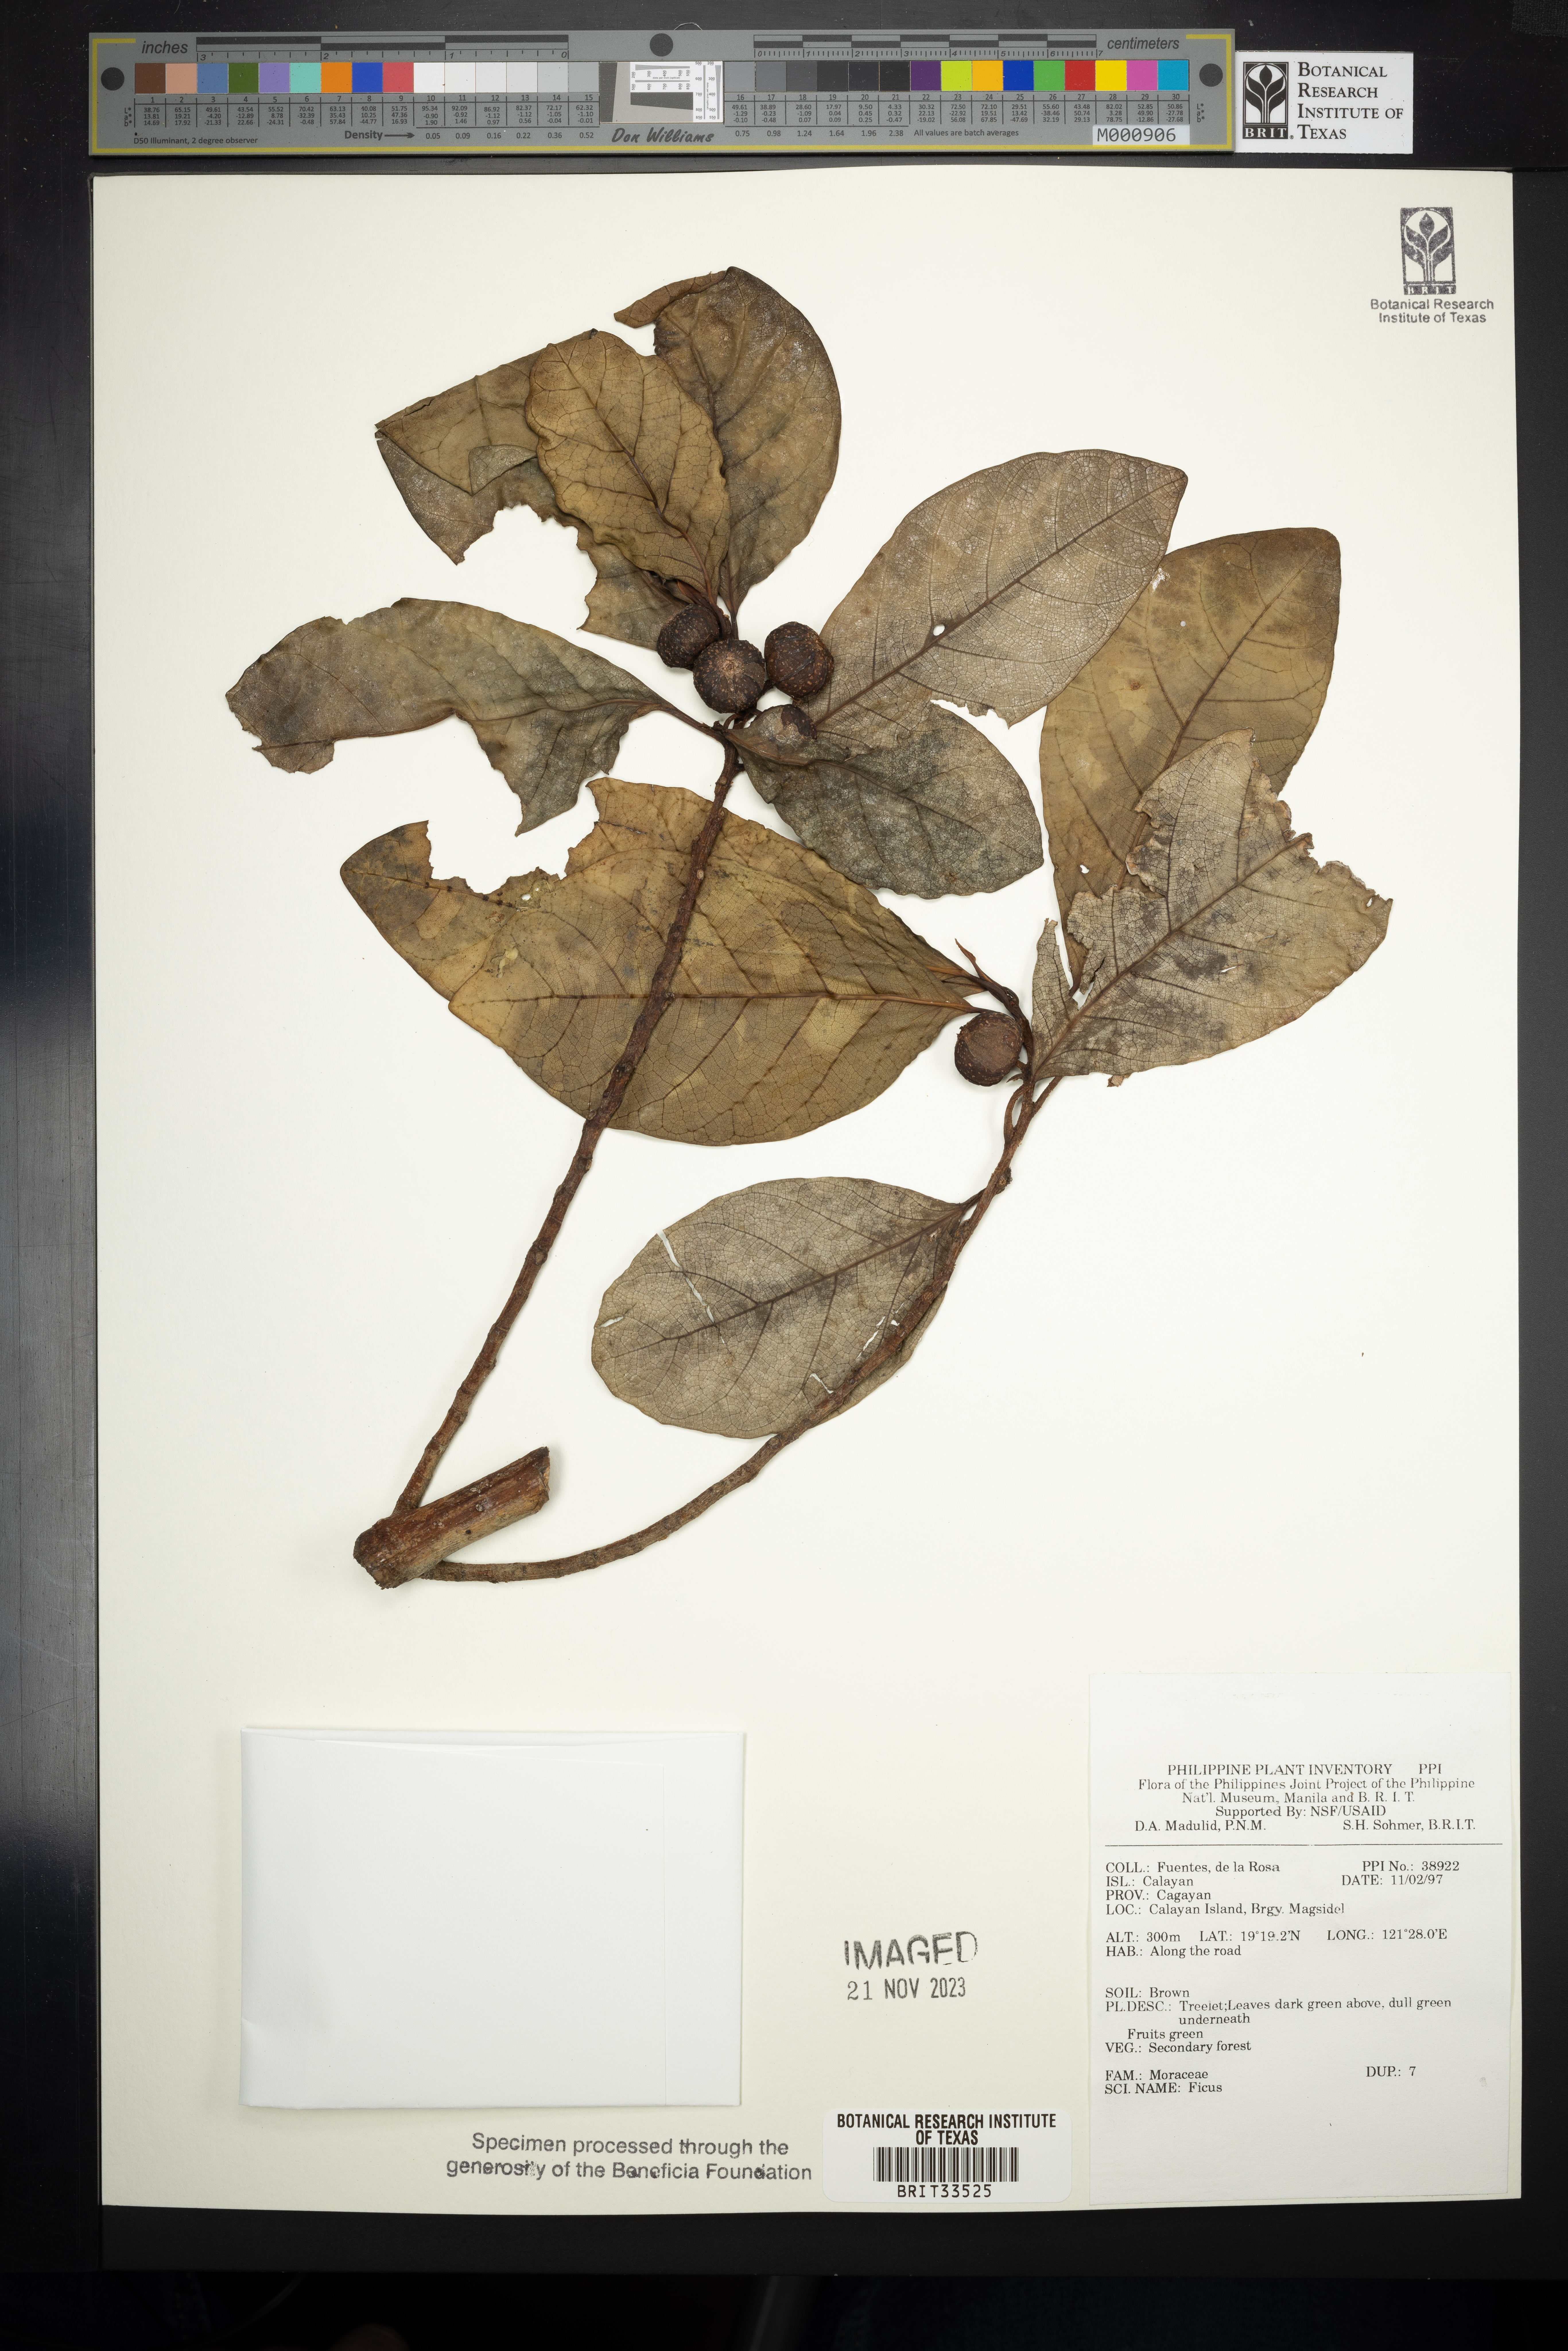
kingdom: Plantae
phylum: Tracheophyta
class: Magnoliopsida
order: Rosales
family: Moraceae
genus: Ficus
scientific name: Ficus
